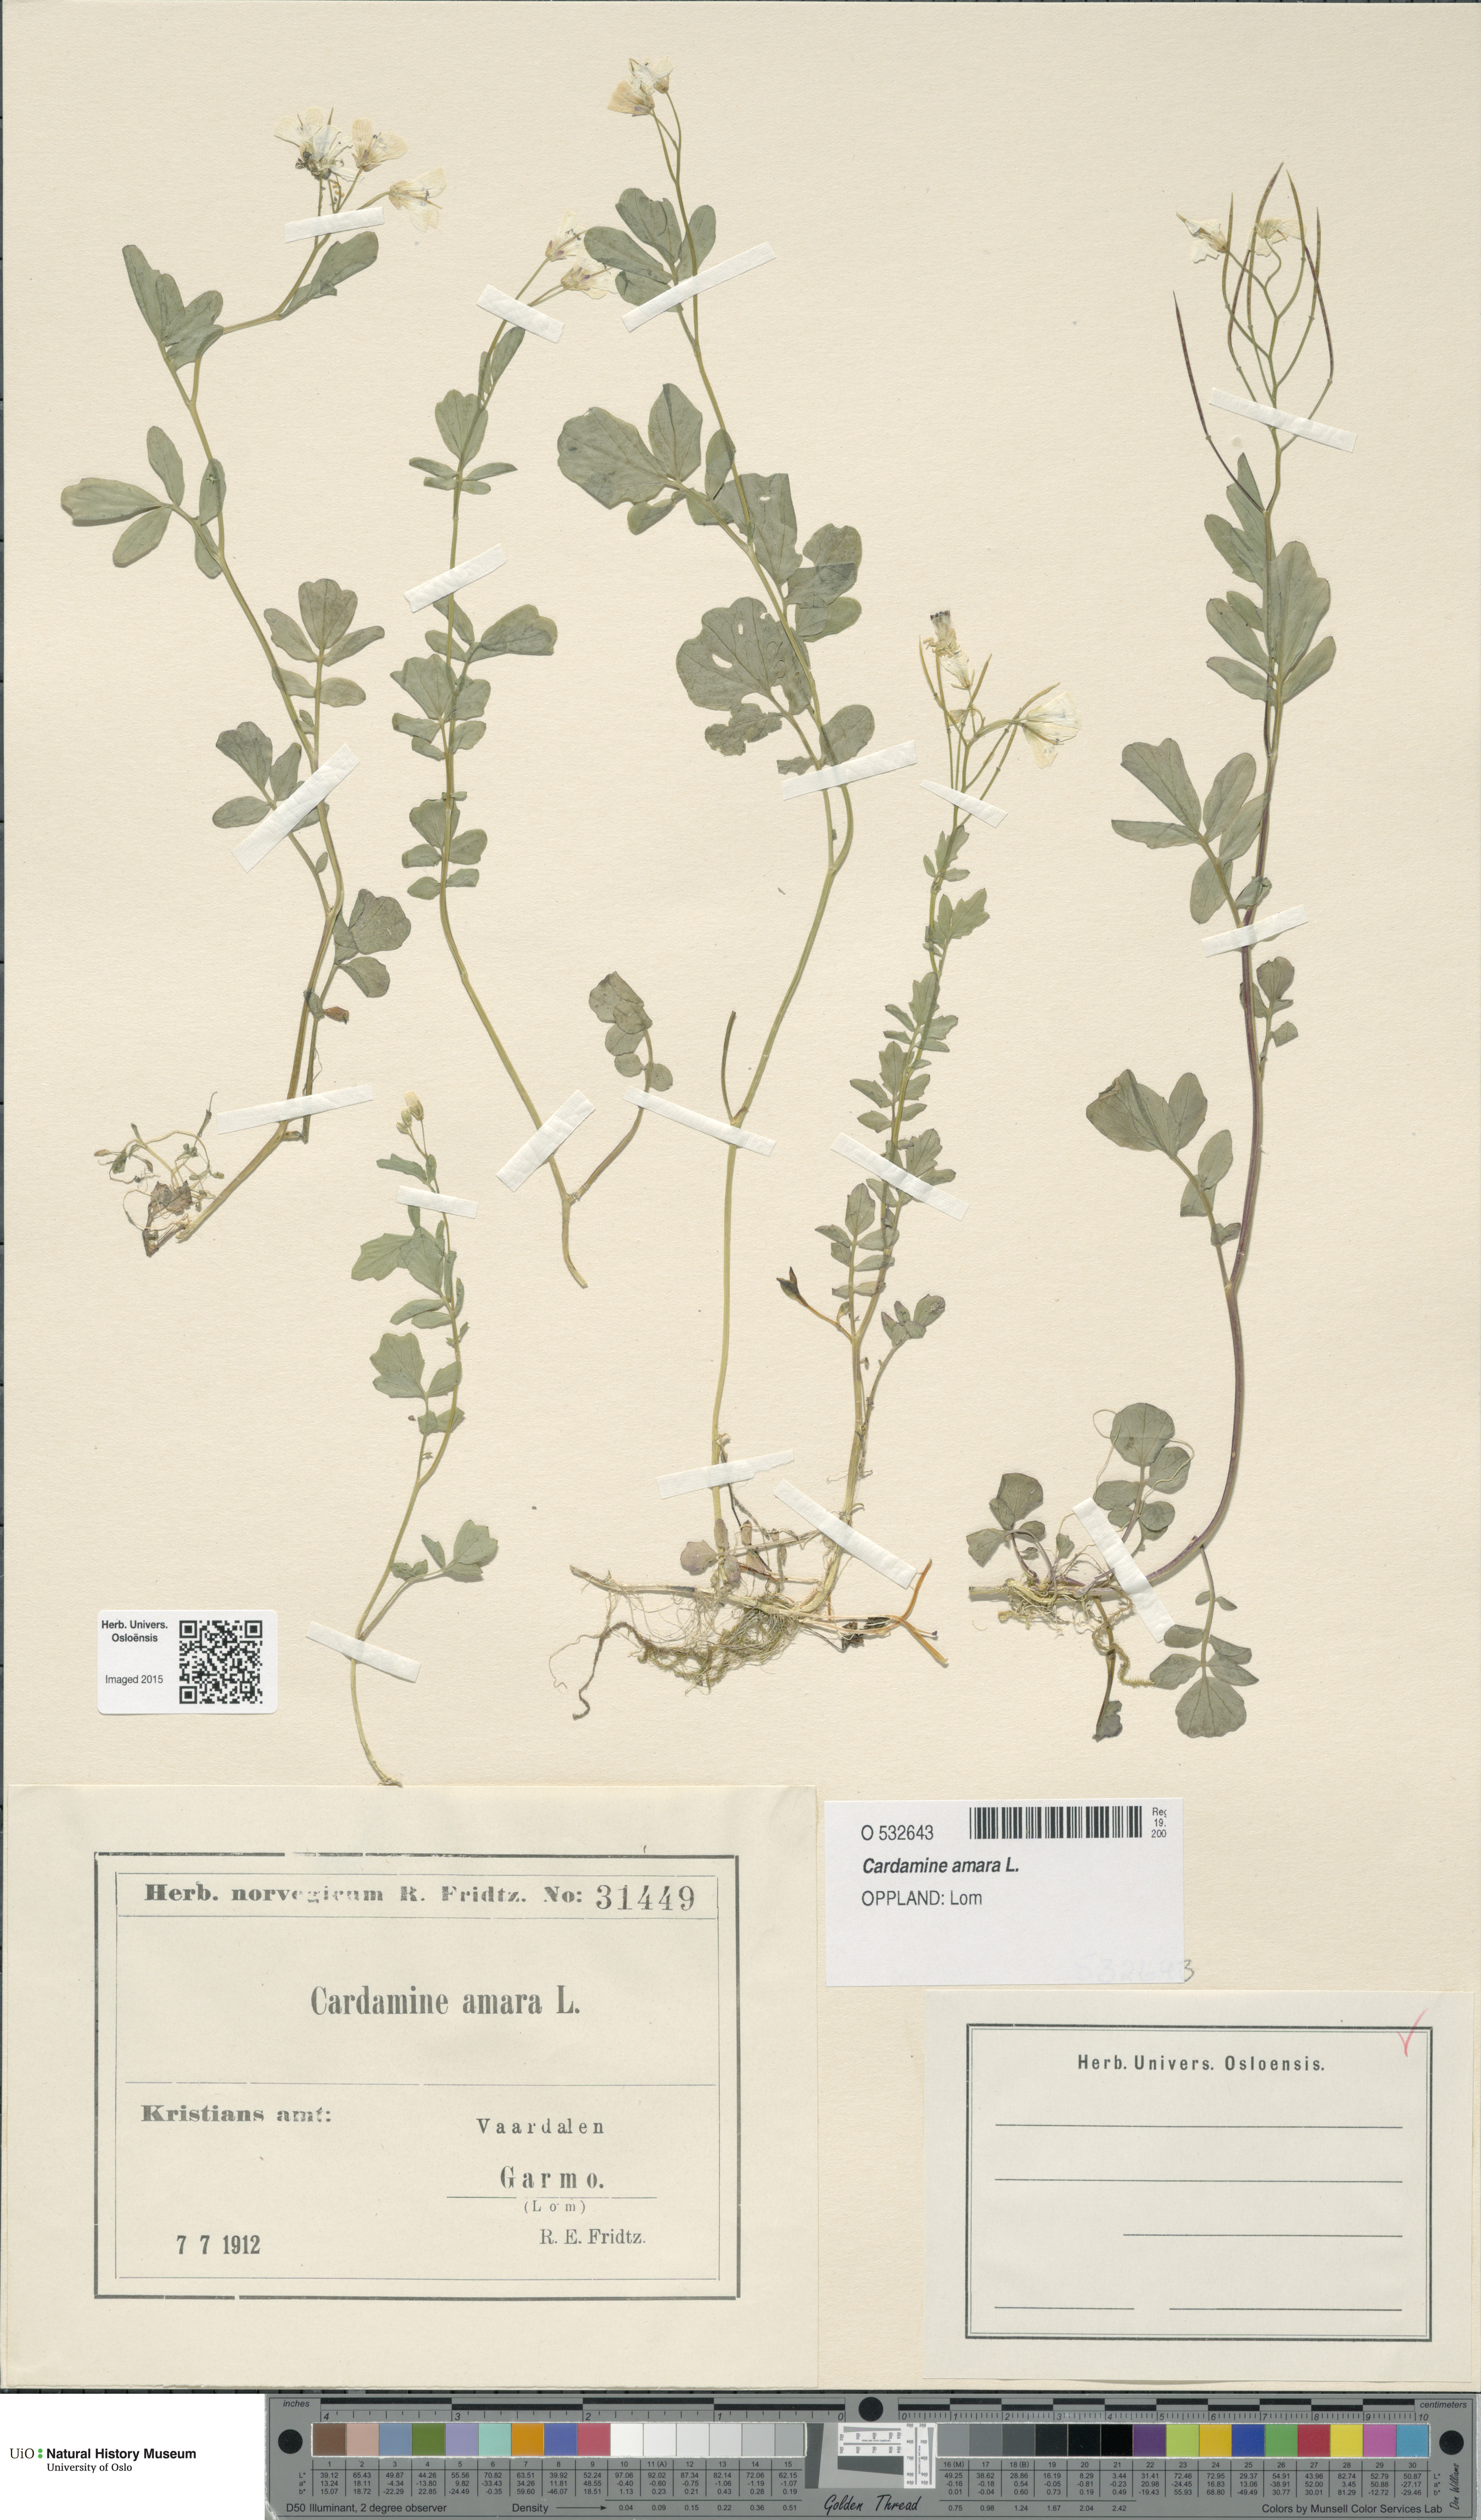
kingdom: Plantae
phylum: Tracheophyta
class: Magnoliopsida
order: Brassicales
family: Brassicaceae
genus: Cardamine
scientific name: Cardamine amara
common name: Large bitter-cress
